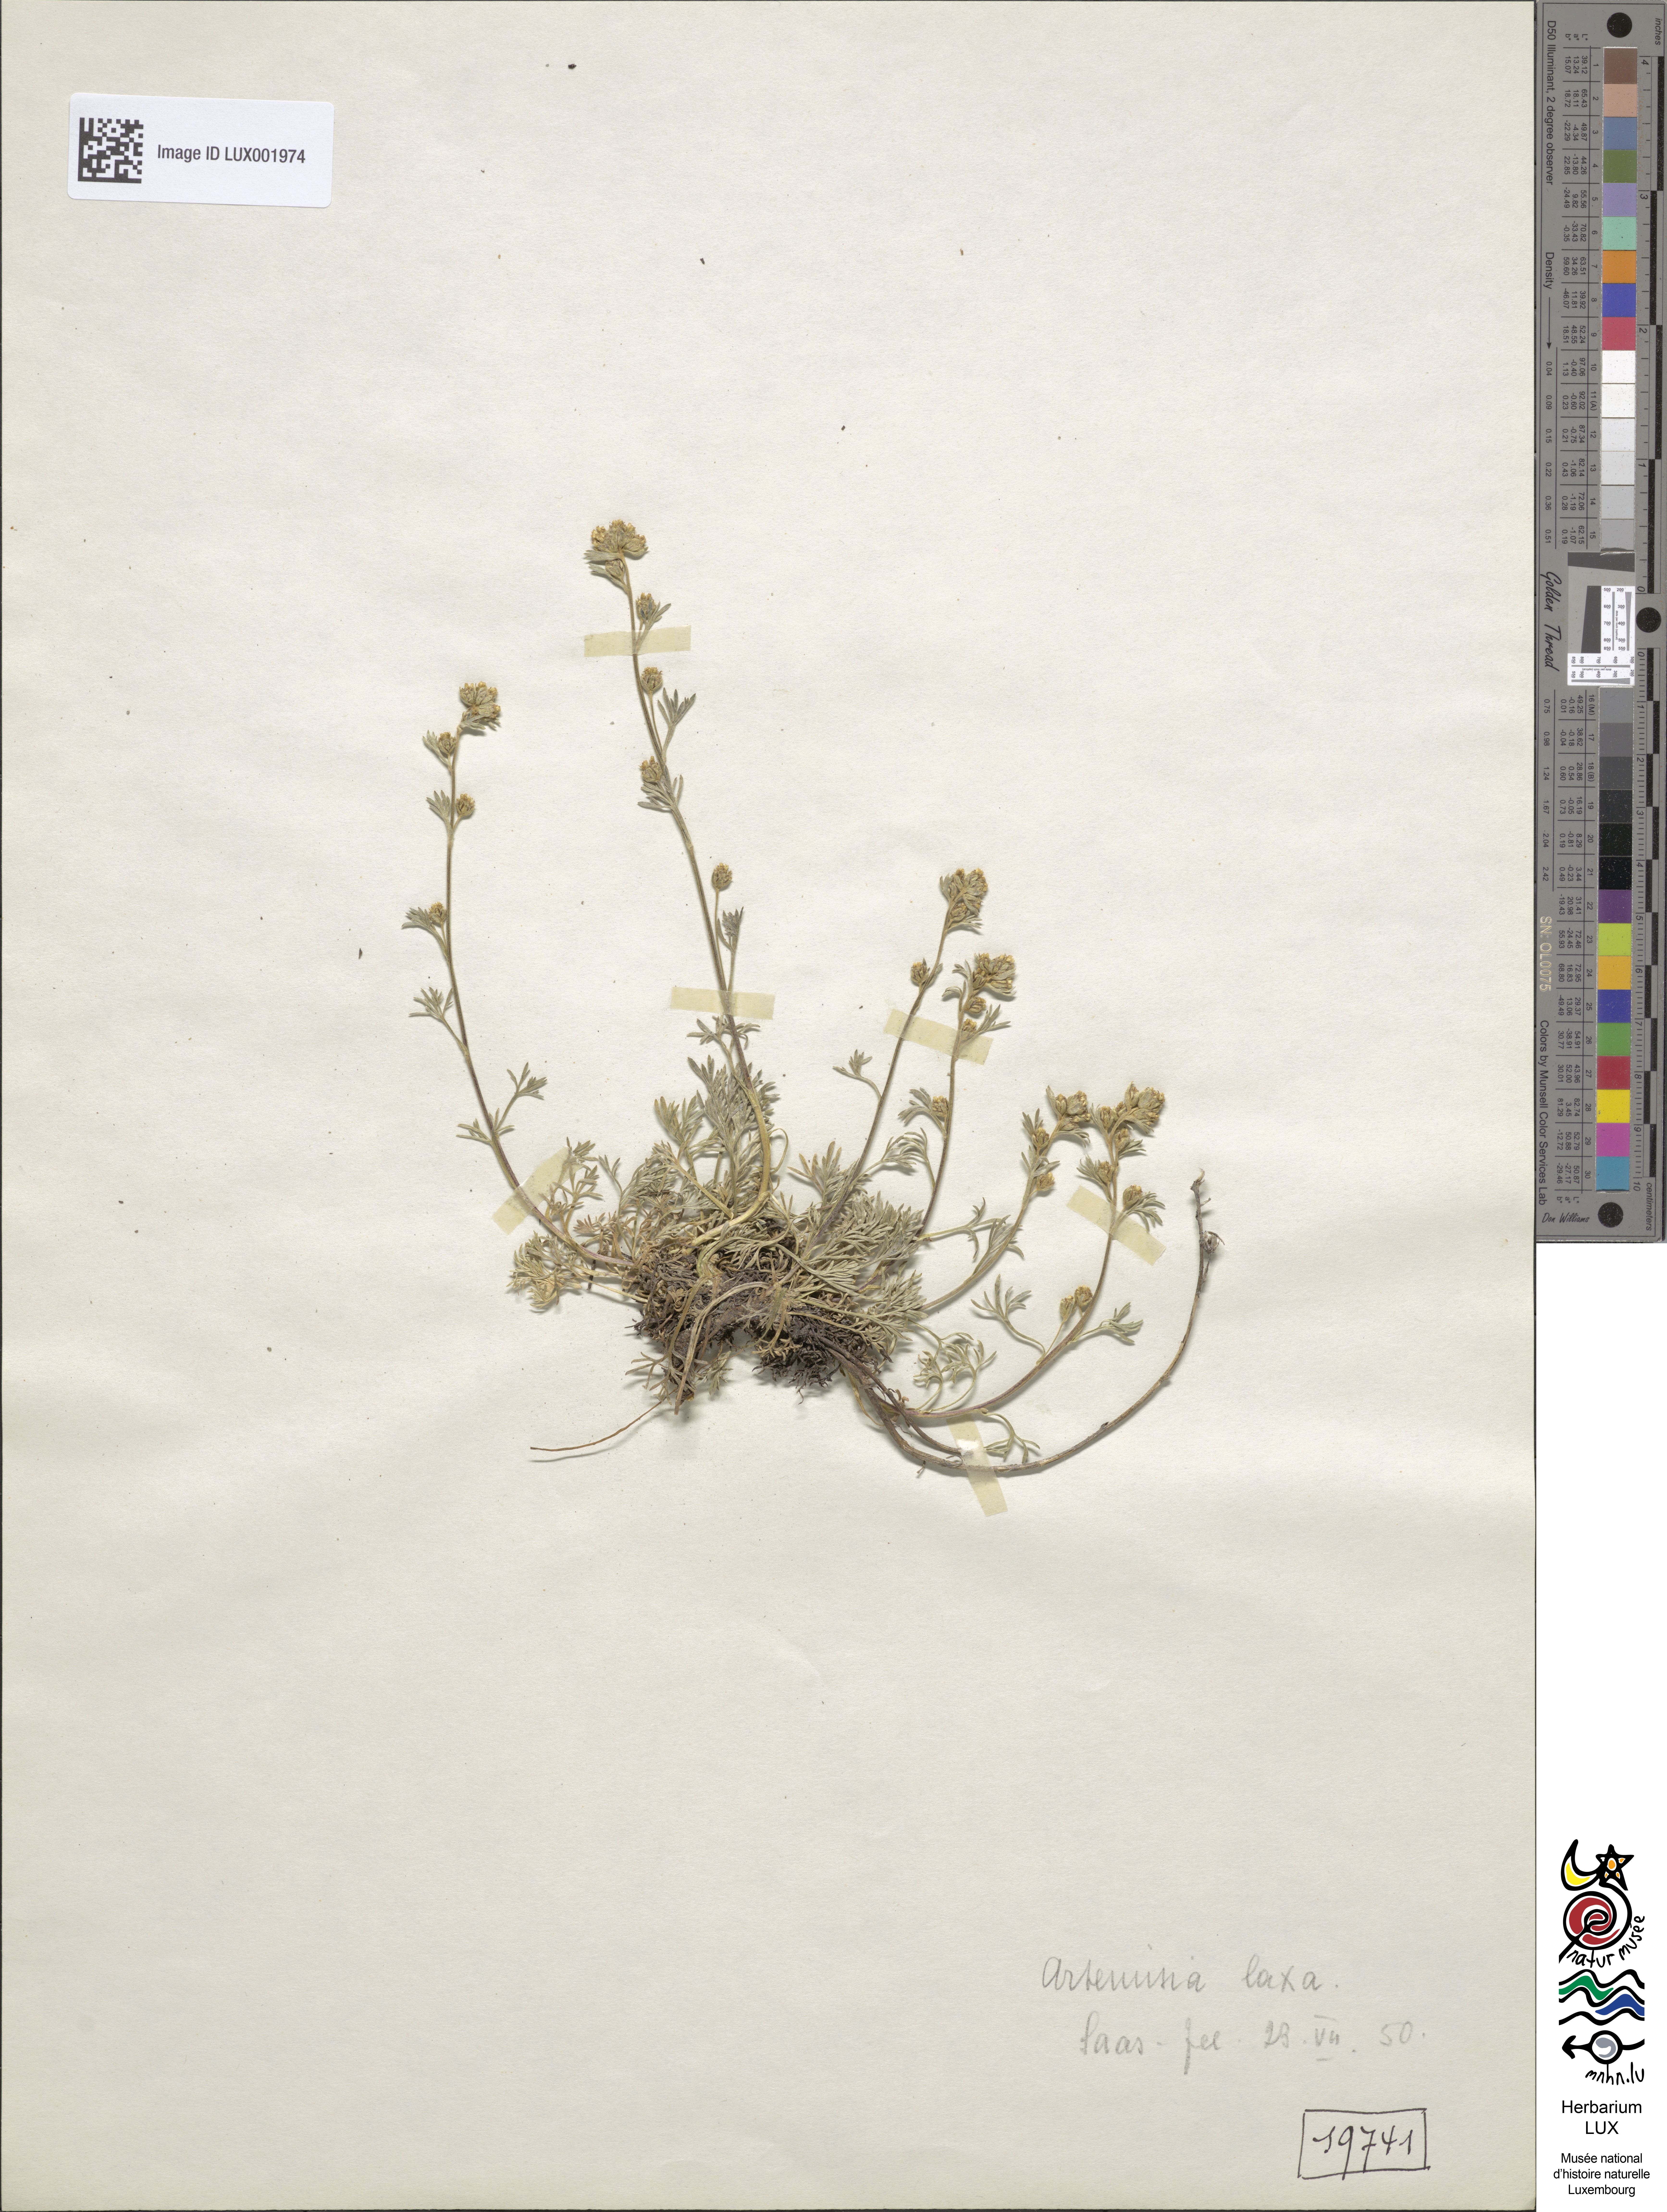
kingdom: Plantae
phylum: Tracheophyta
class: Magnoliopsida
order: Asterales
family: Asteraceae
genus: Artemisia
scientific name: Artemisia mutellina
